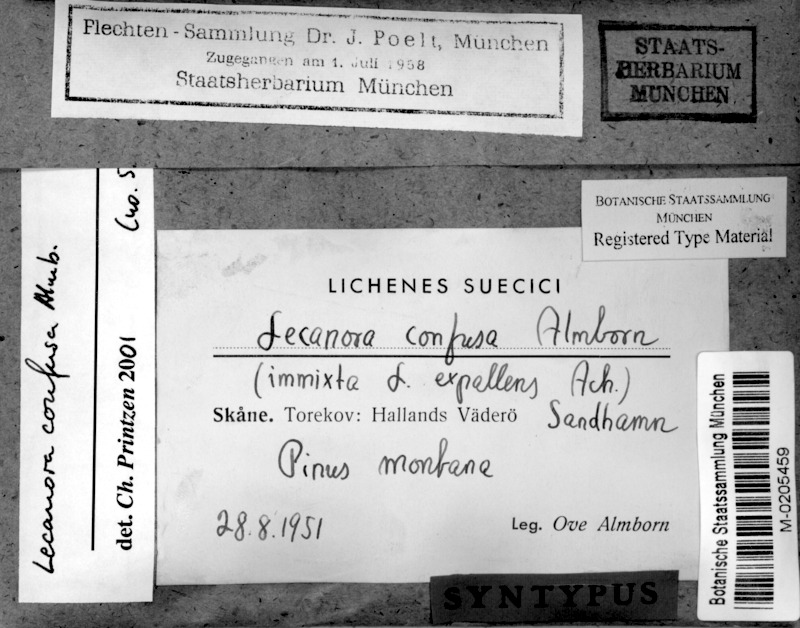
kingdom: Fungi
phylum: Ascomycota
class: Lecanoromycetes
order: Lecanorales
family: Lecanoraceae
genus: Lecanora
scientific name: Lecanora expallens
